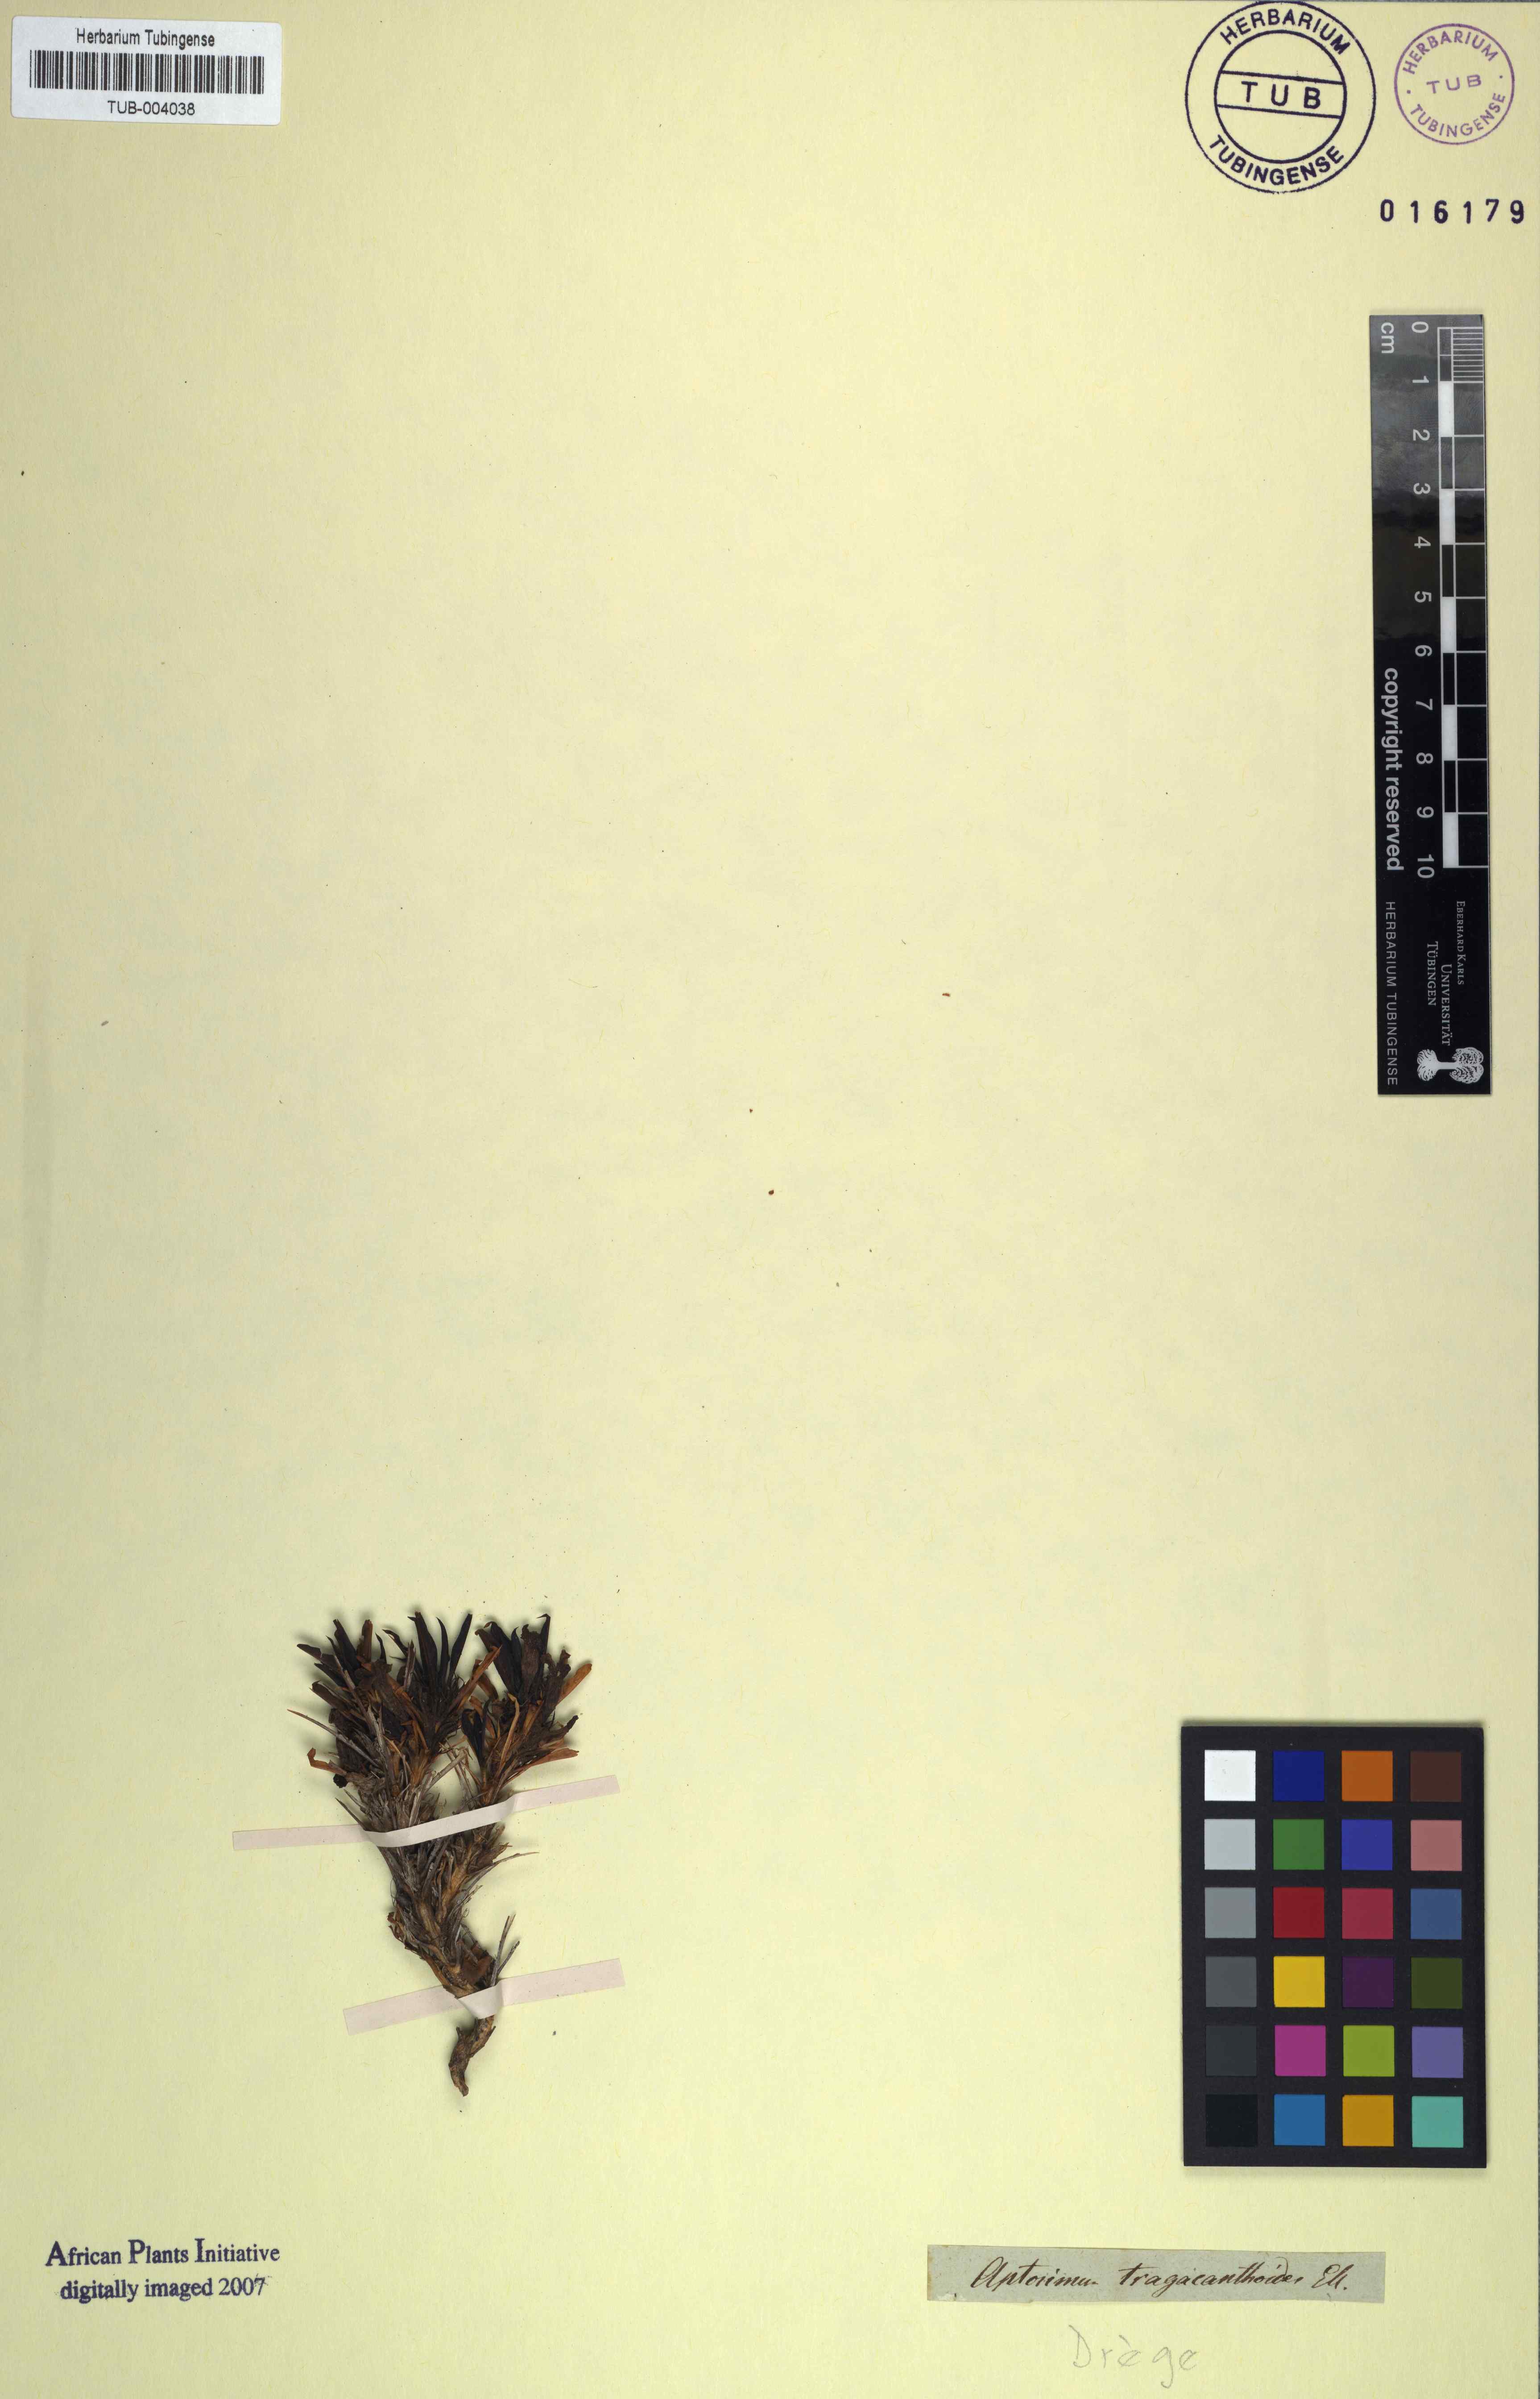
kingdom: Plantae
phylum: Tracheophyta
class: Magnoliopsida
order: Lamiales
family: Scrophulariaceae
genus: Aptosimum
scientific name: Aptosimum tragacanthoides
